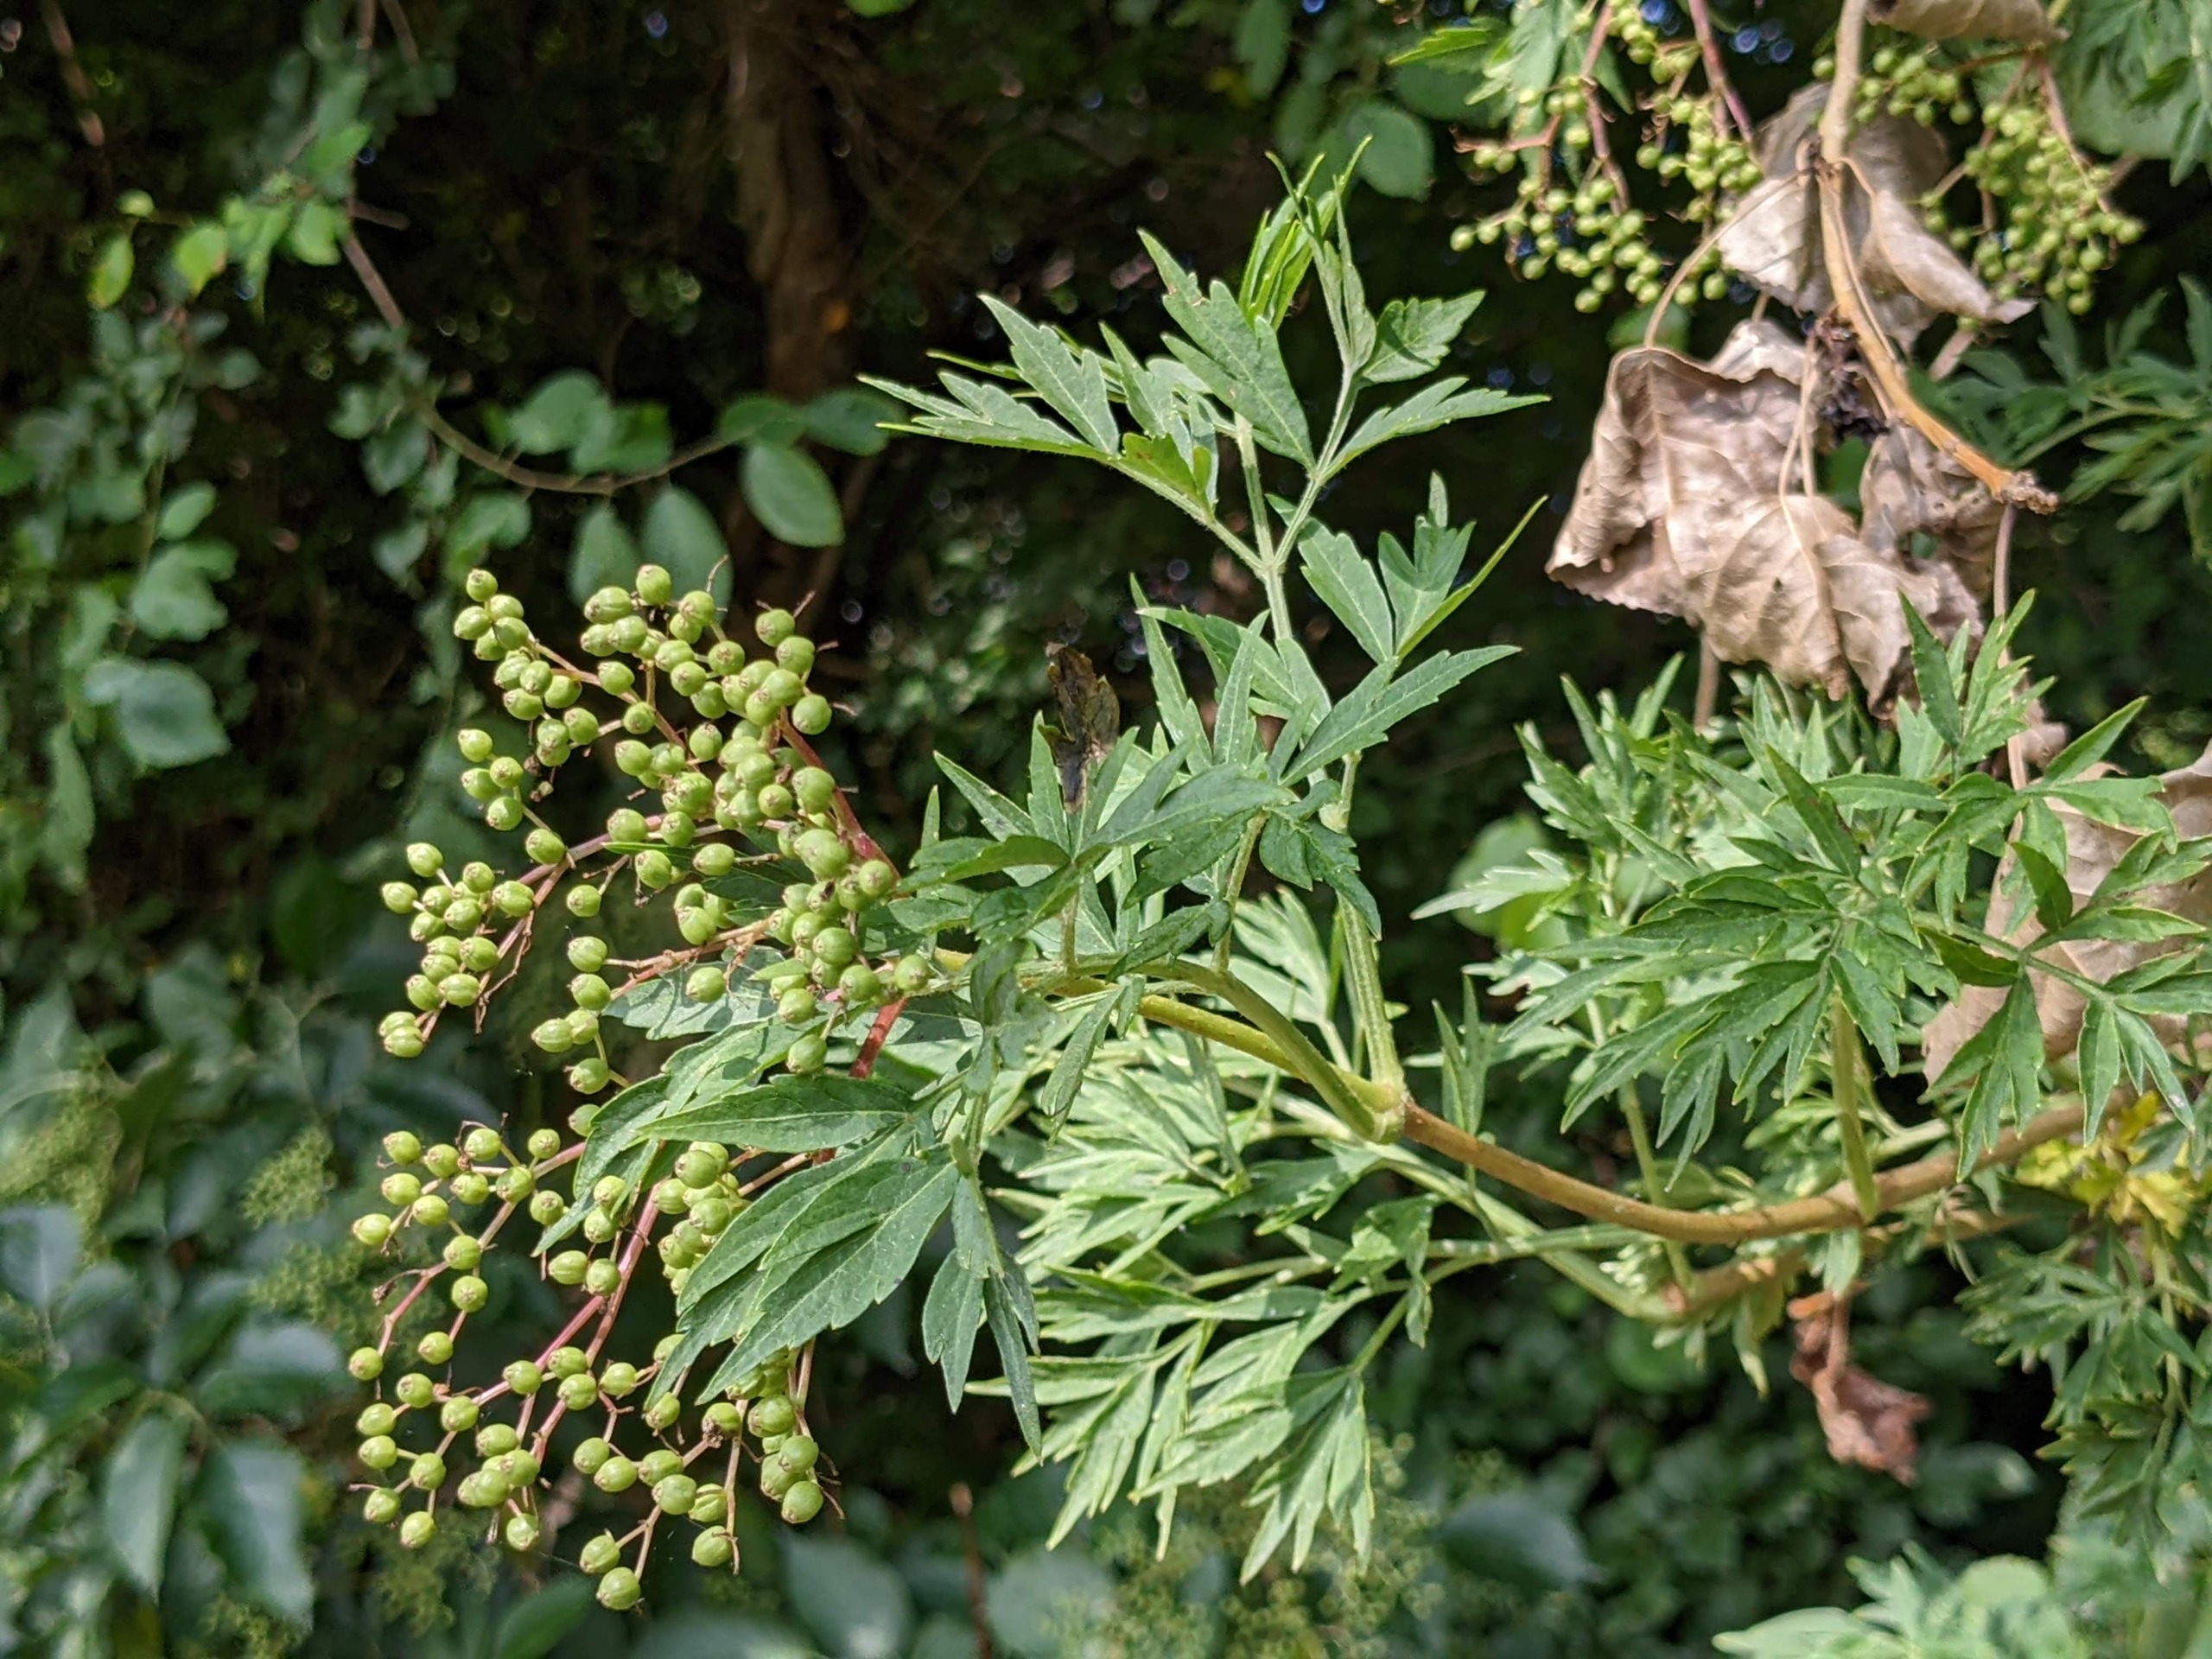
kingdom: Plantae
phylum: Tracheophyta
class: Magnoliopsida
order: Dipsacales
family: Viburnaceae
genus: Sambucus
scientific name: Sambucus nigra
